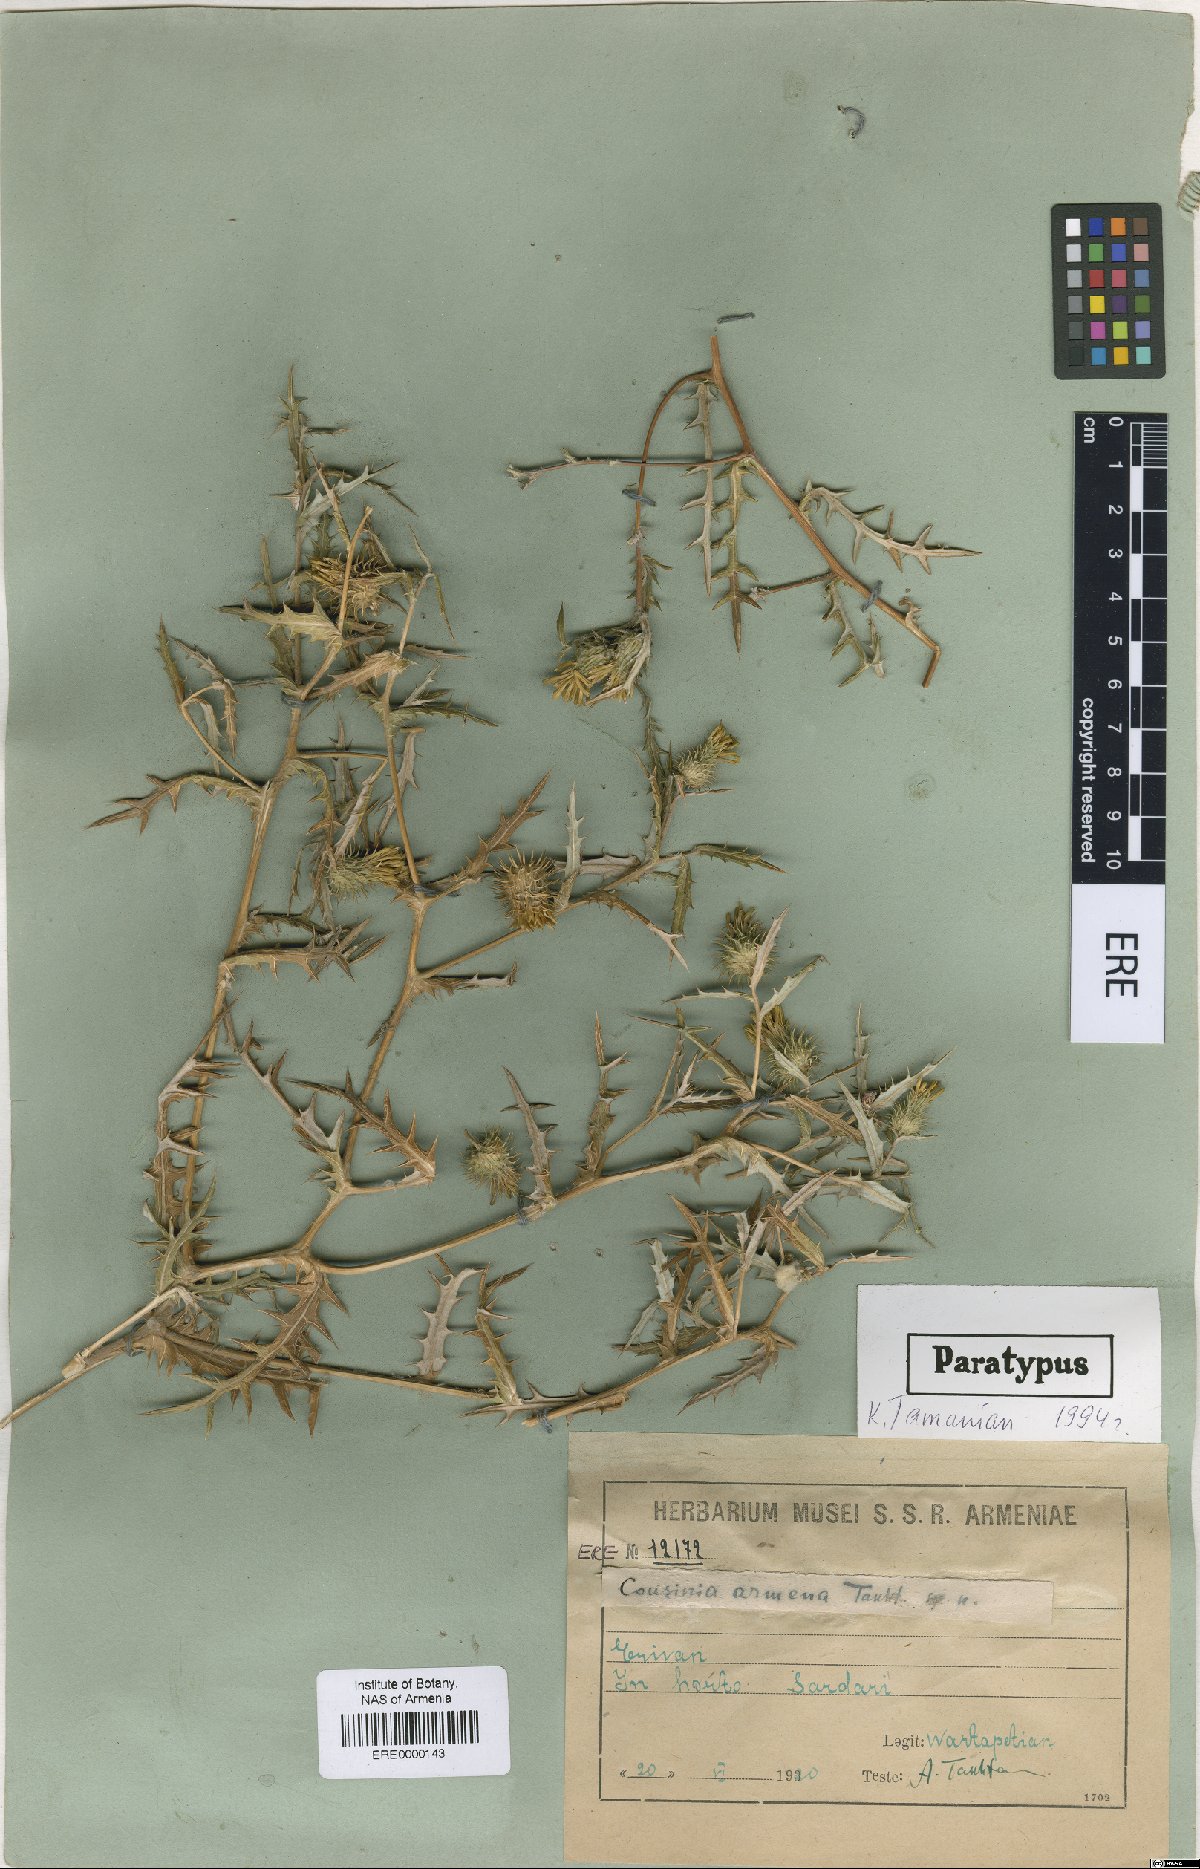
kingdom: Plantae
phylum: Tracheophyta
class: Magnoliopsida
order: Asterales
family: Asteraceae
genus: Cousinia
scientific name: Cousinia armena
